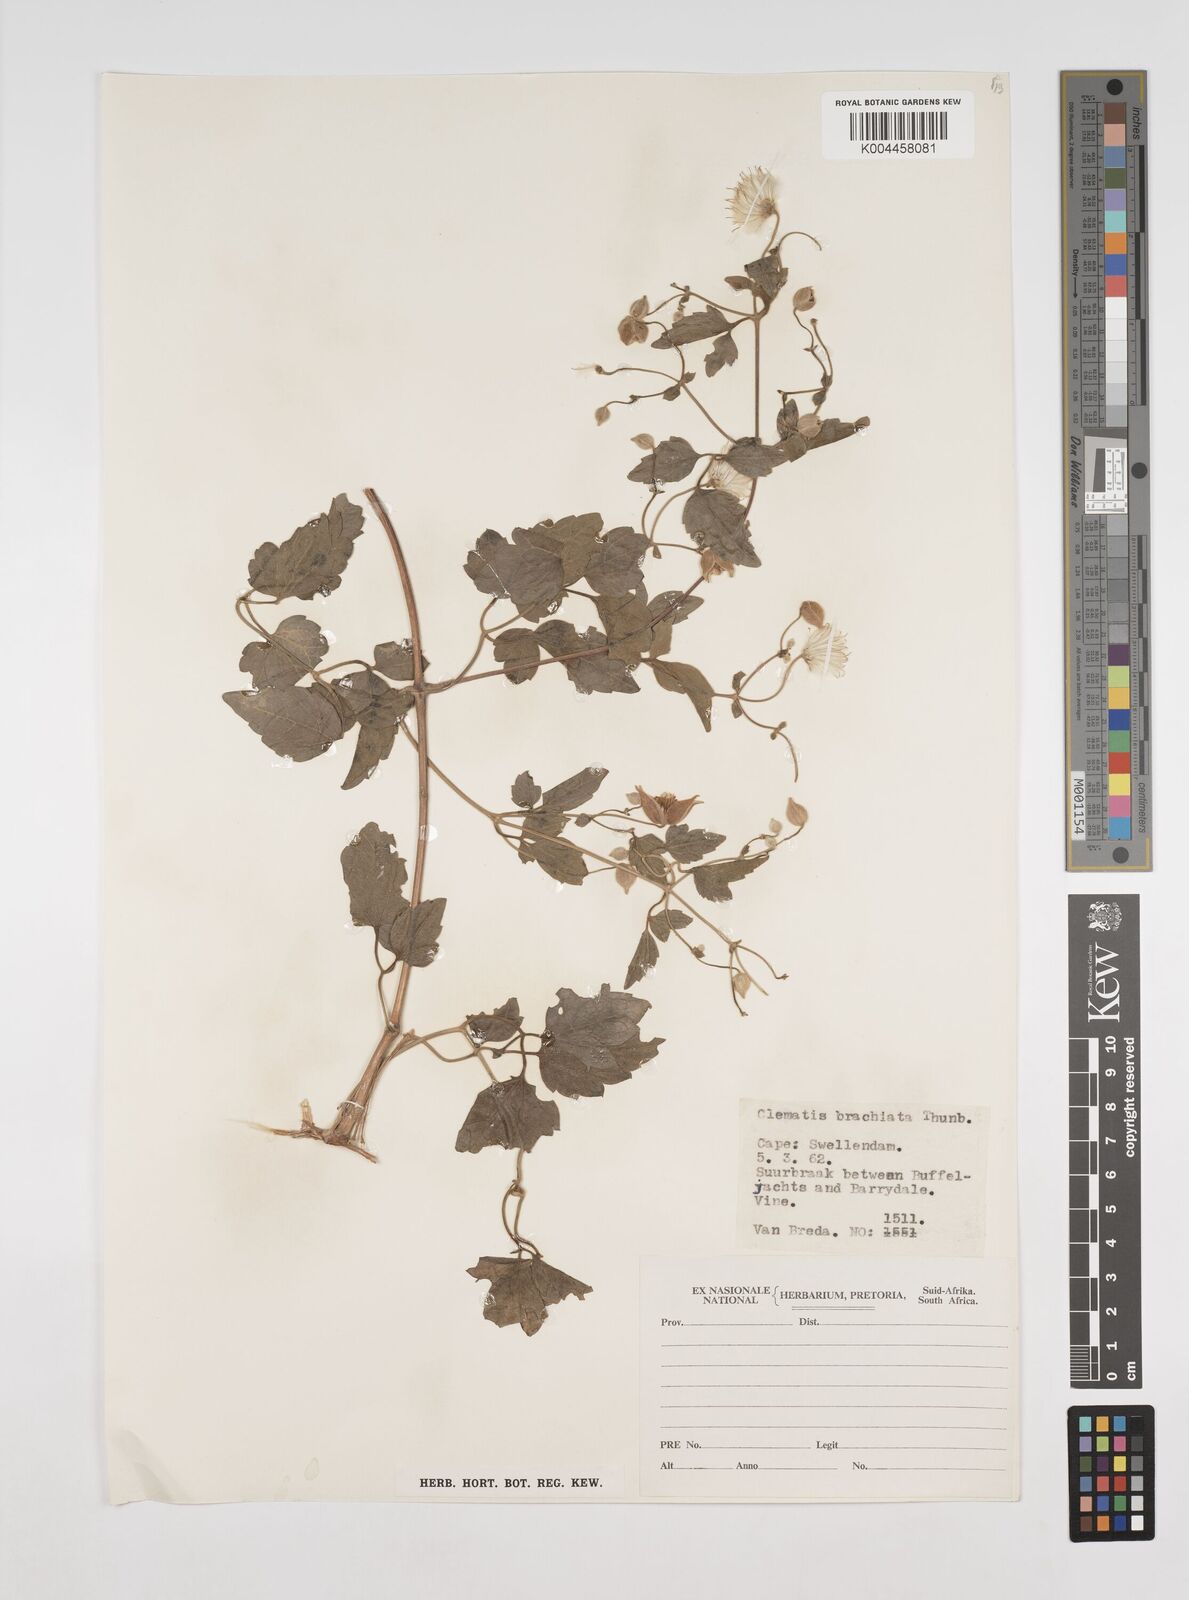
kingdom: Plantae
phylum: Tracheophyta
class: Magnoliopsida
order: Ranunculales
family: Ranunculaceae
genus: Clematis
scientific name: Clematis brachiata
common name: Traveler's-joy
